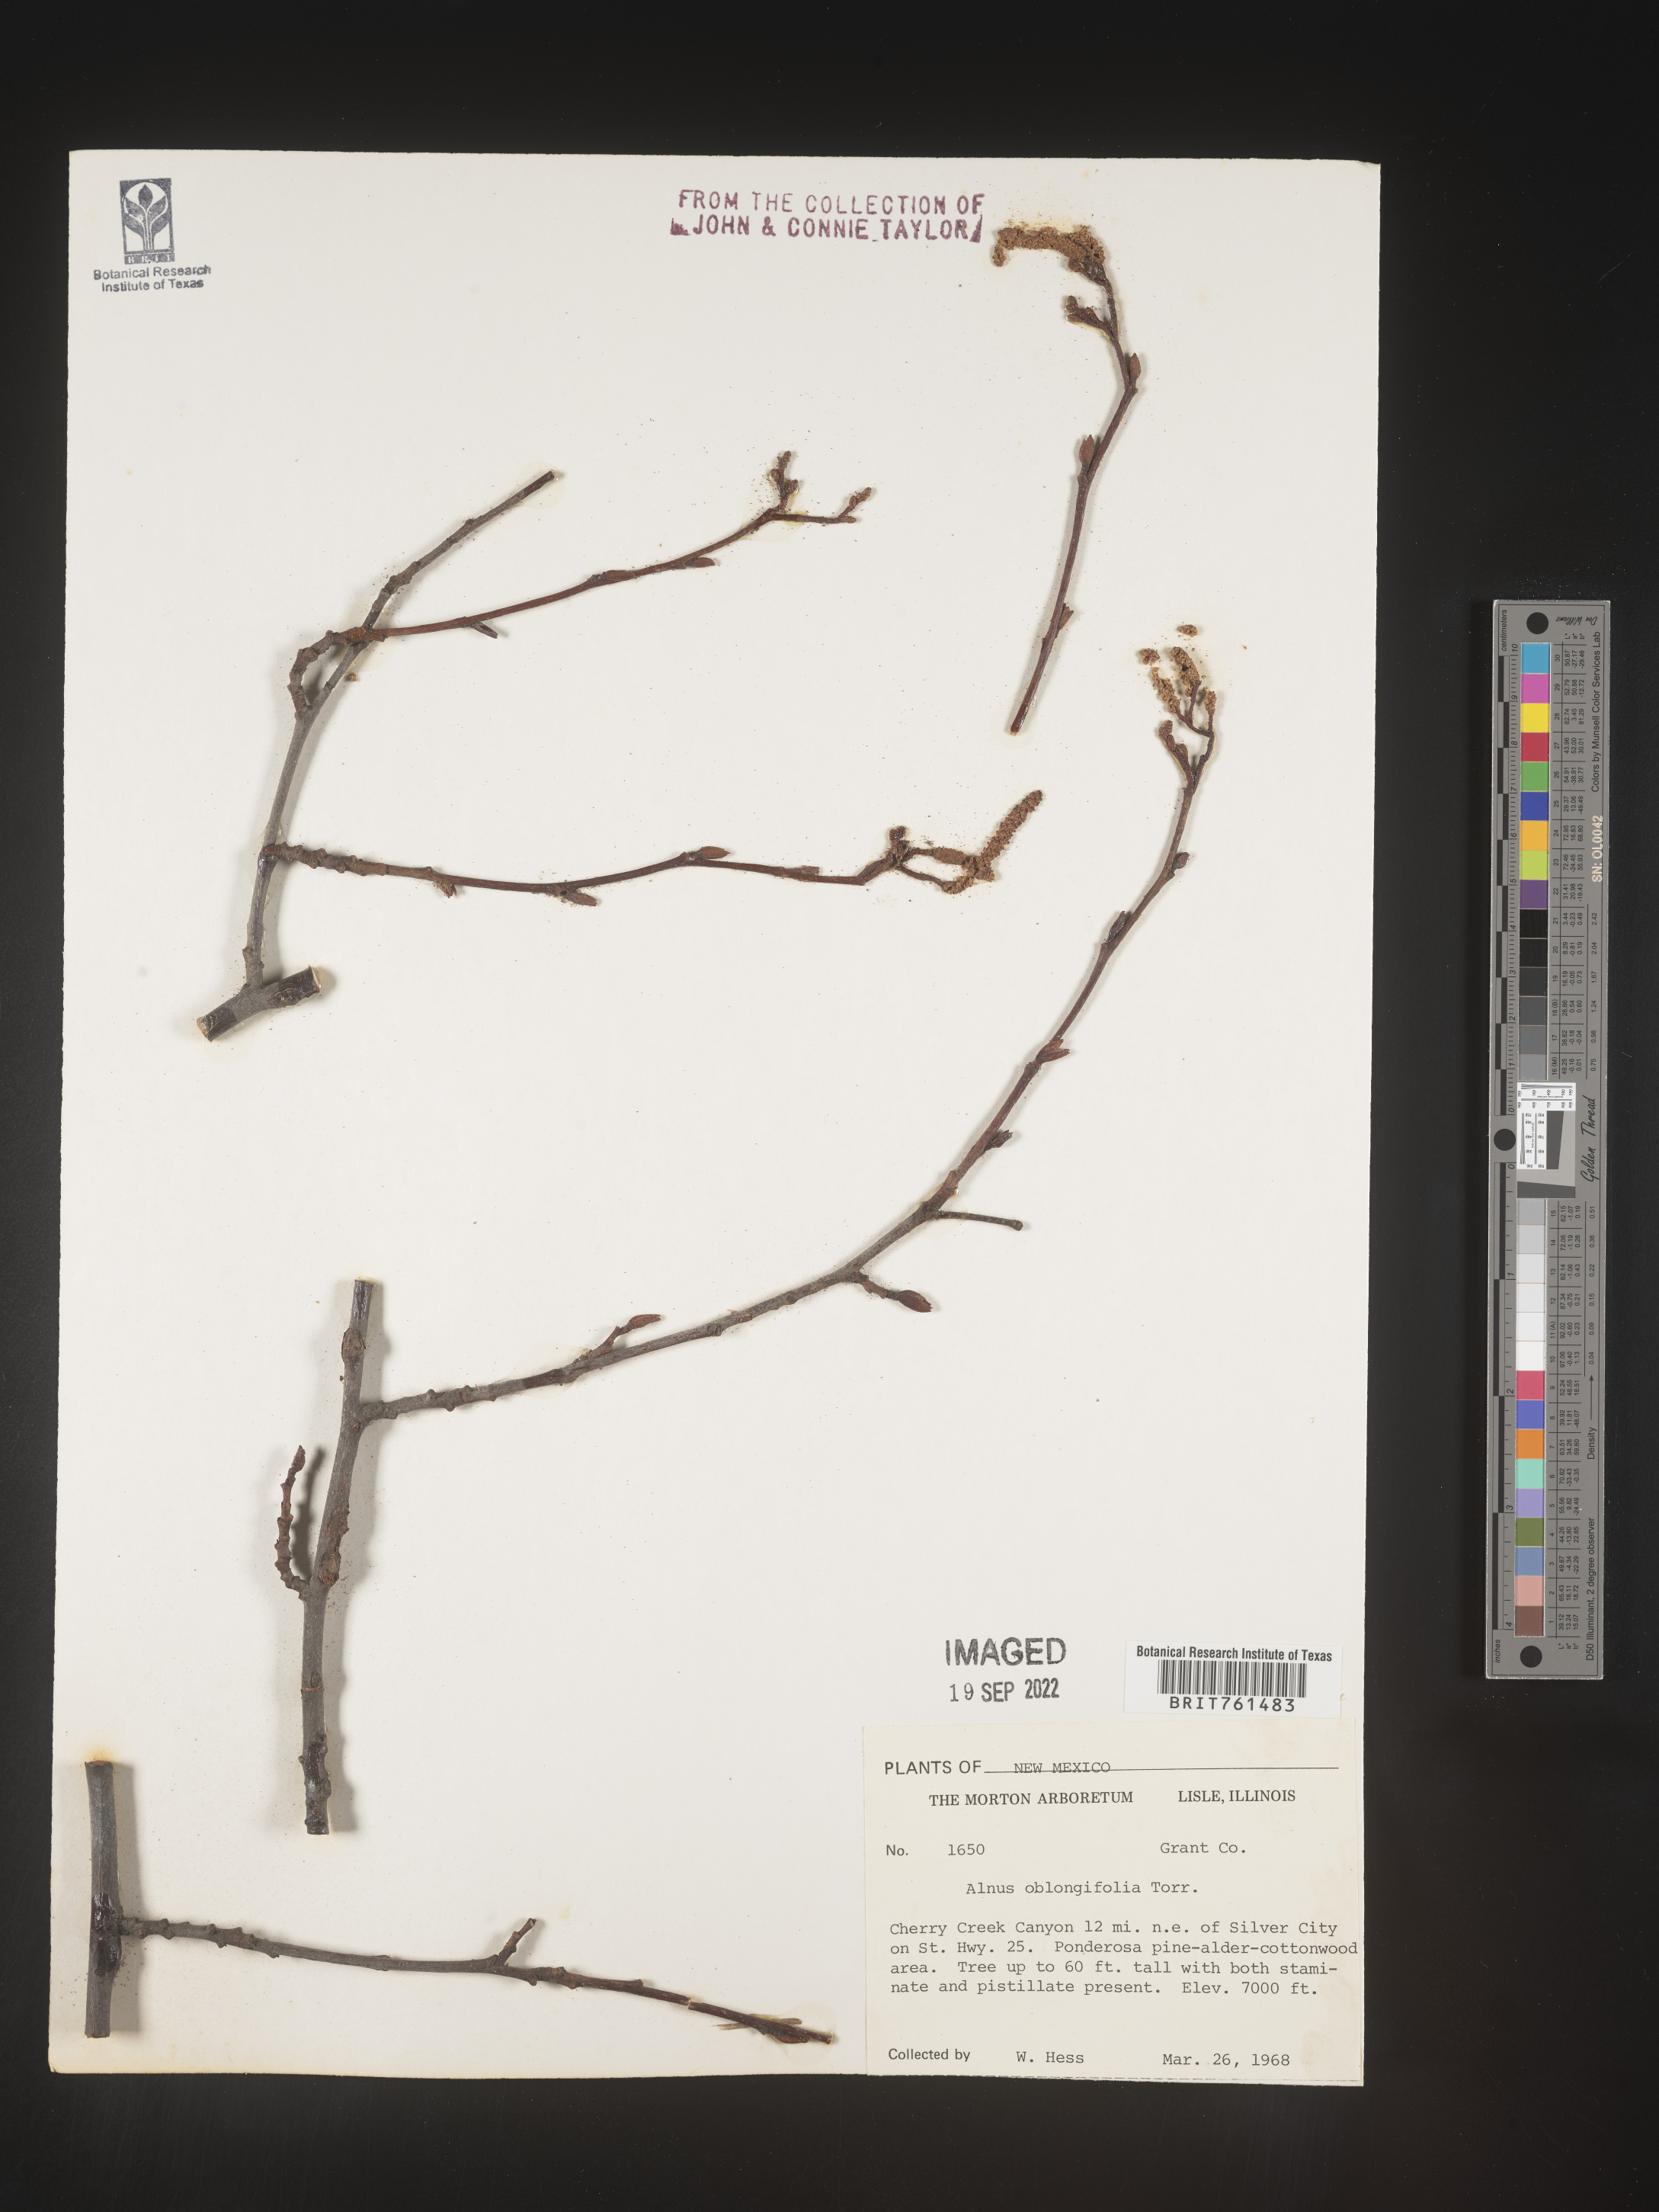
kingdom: Plantae
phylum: Tracheophyta
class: Magnoliopsida
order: Fagales
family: Betulaceae
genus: Alnus
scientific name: Alnus
